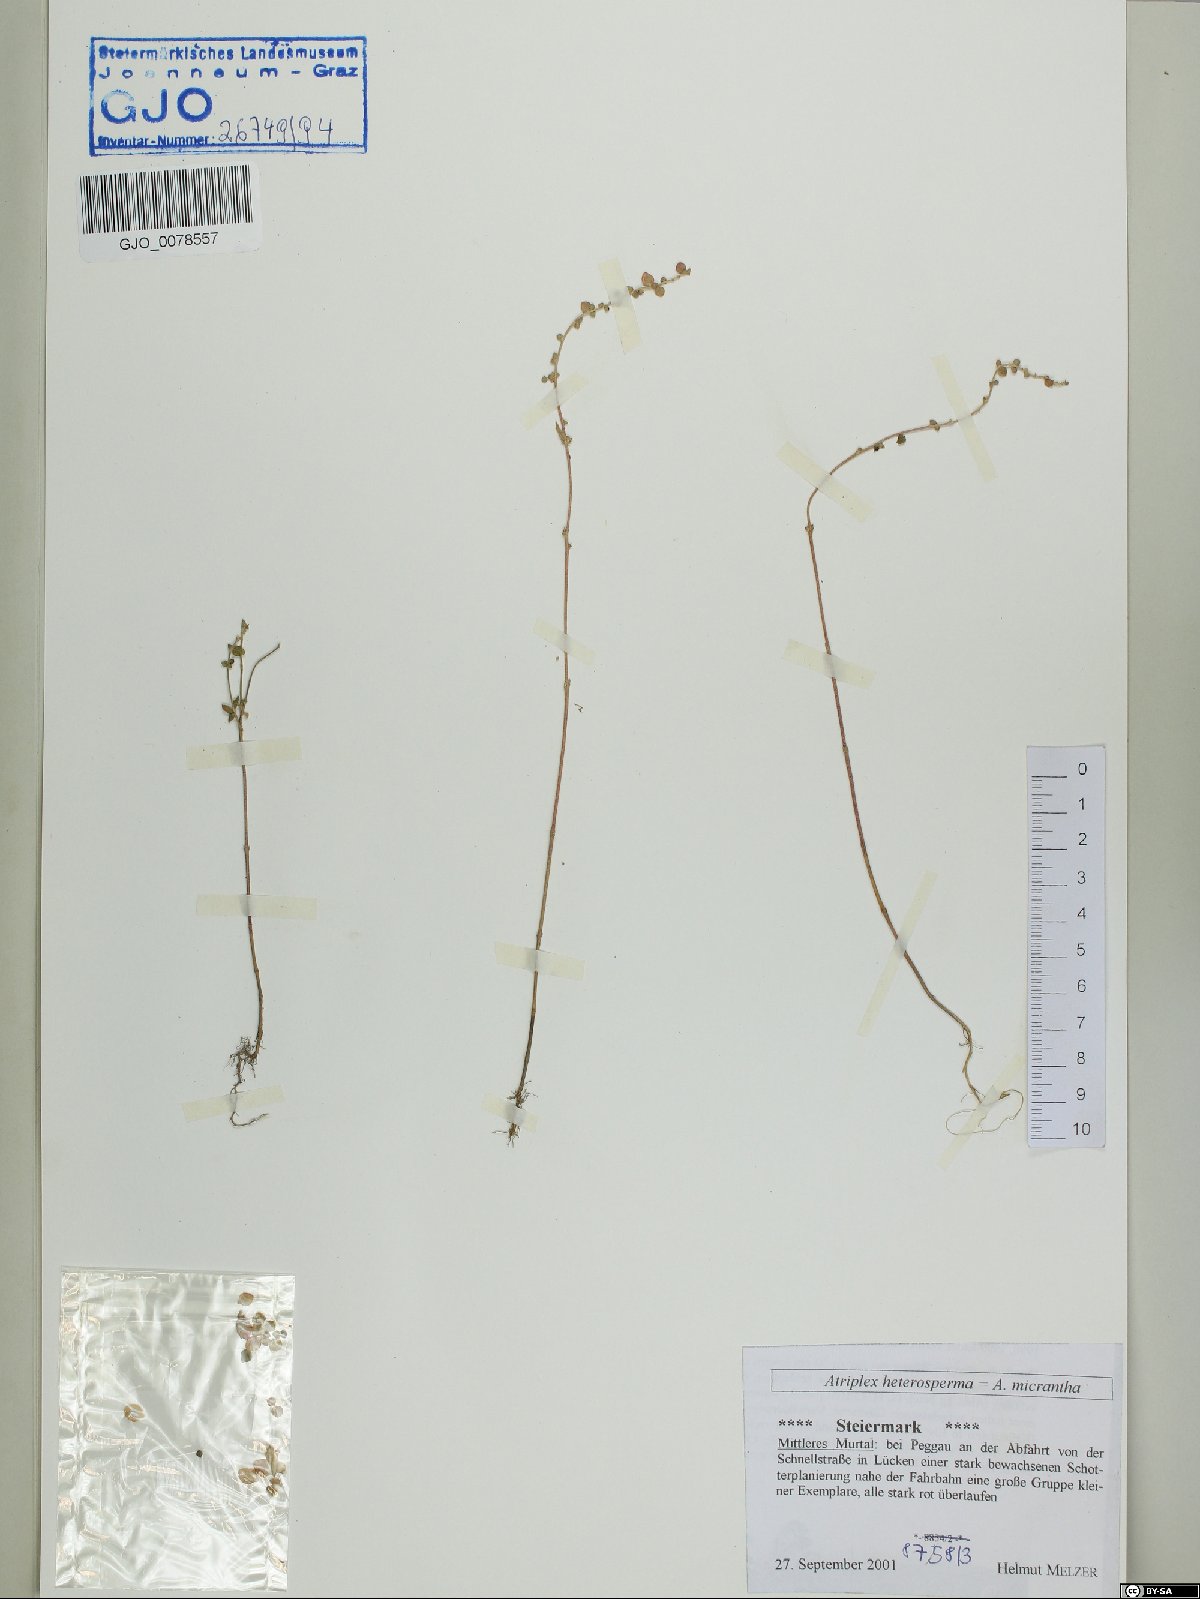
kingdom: Plantae
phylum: Tracheophyta
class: Magnoliopsida
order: Caryophyllales
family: Amaranthaceae
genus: Atriplex
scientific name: Atriplex micrantha
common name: Twoscale saltbush
